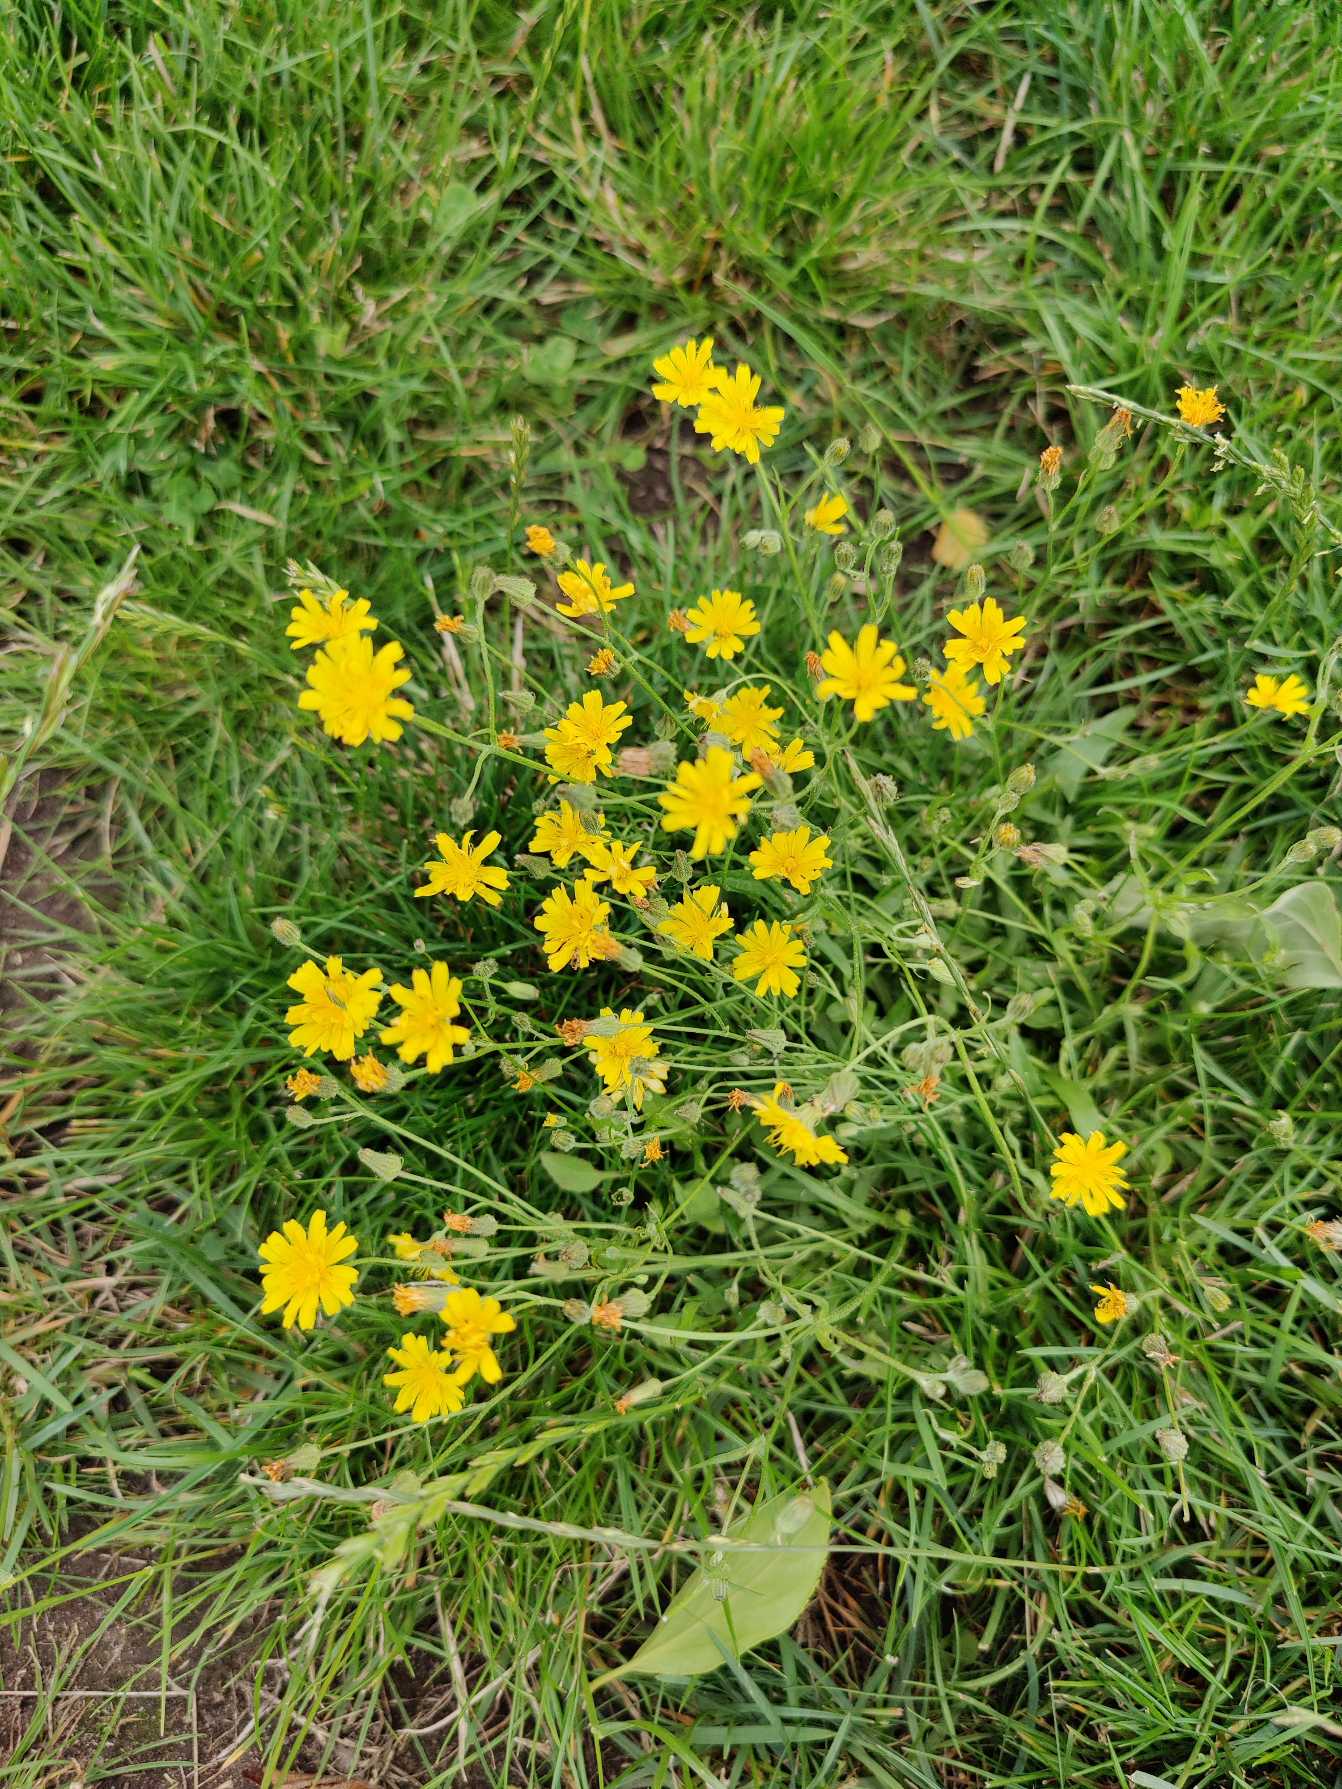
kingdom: Plantae
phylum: Tracheophyta
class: Magnoliopsida
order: Asterales
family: Asteraceae
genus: Crepis
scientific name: Crepis capillaris
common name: Grøn høgeskæg
